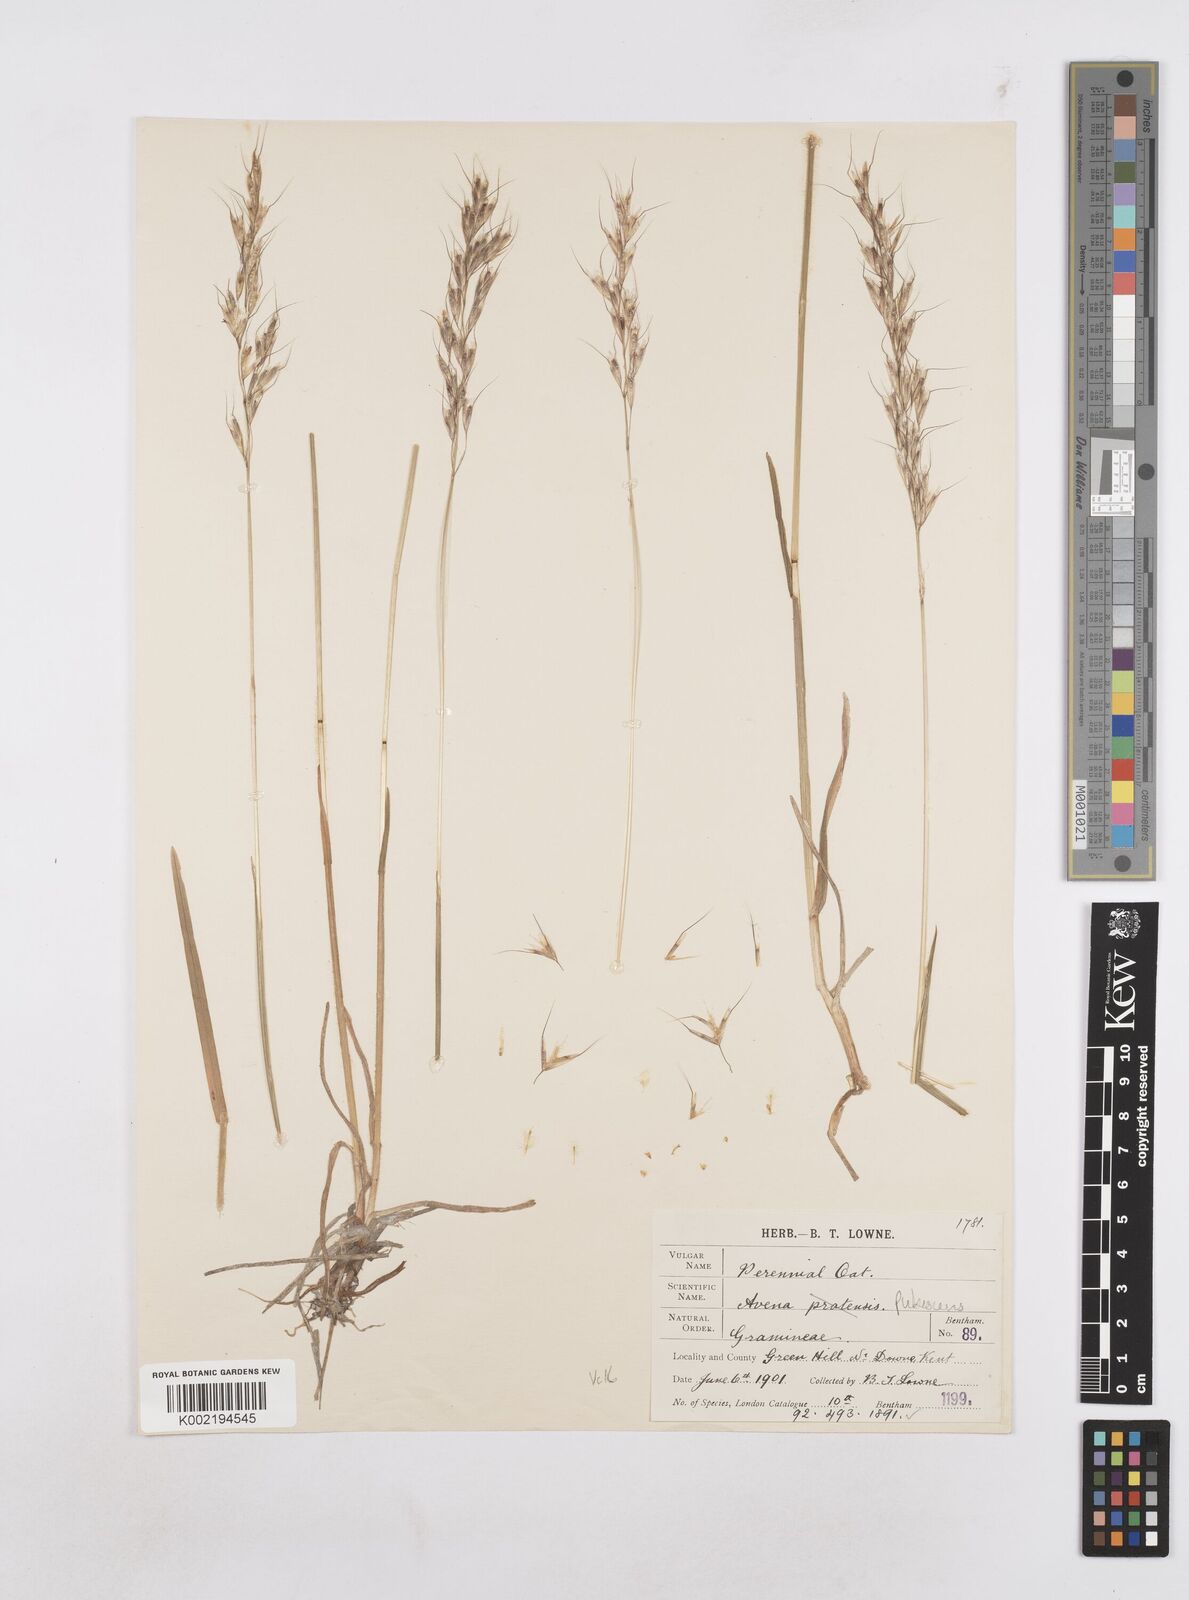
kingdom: Plantae
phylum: Tracheophyta
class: Liliopsida
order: Poales
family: Poaceae
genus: Avenula
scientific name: Avenula pubescens
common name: Downy alpine oatgrass
